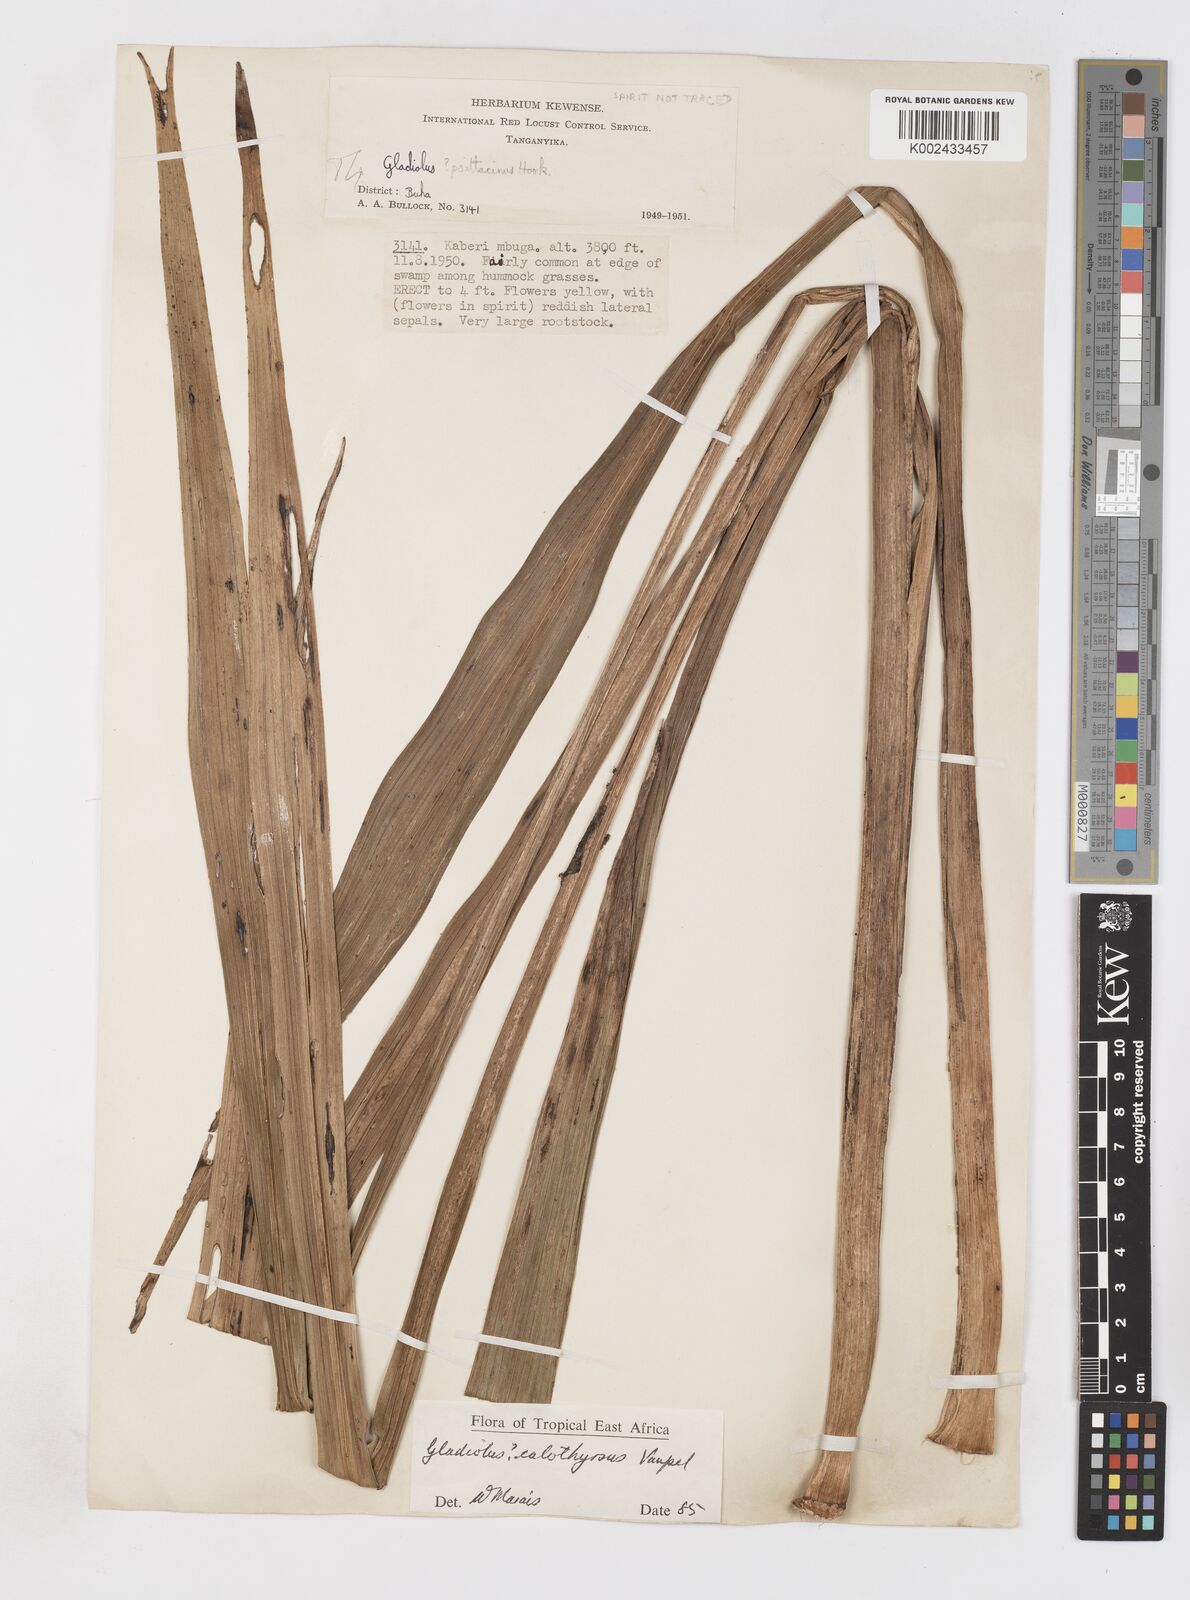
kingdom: Plantae
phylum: Tracheophyta
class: Liliopsida
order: Asparagales
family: Iridaceae
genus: Gladiolus
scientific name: Gladiolus dalenii
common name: Cornflag
